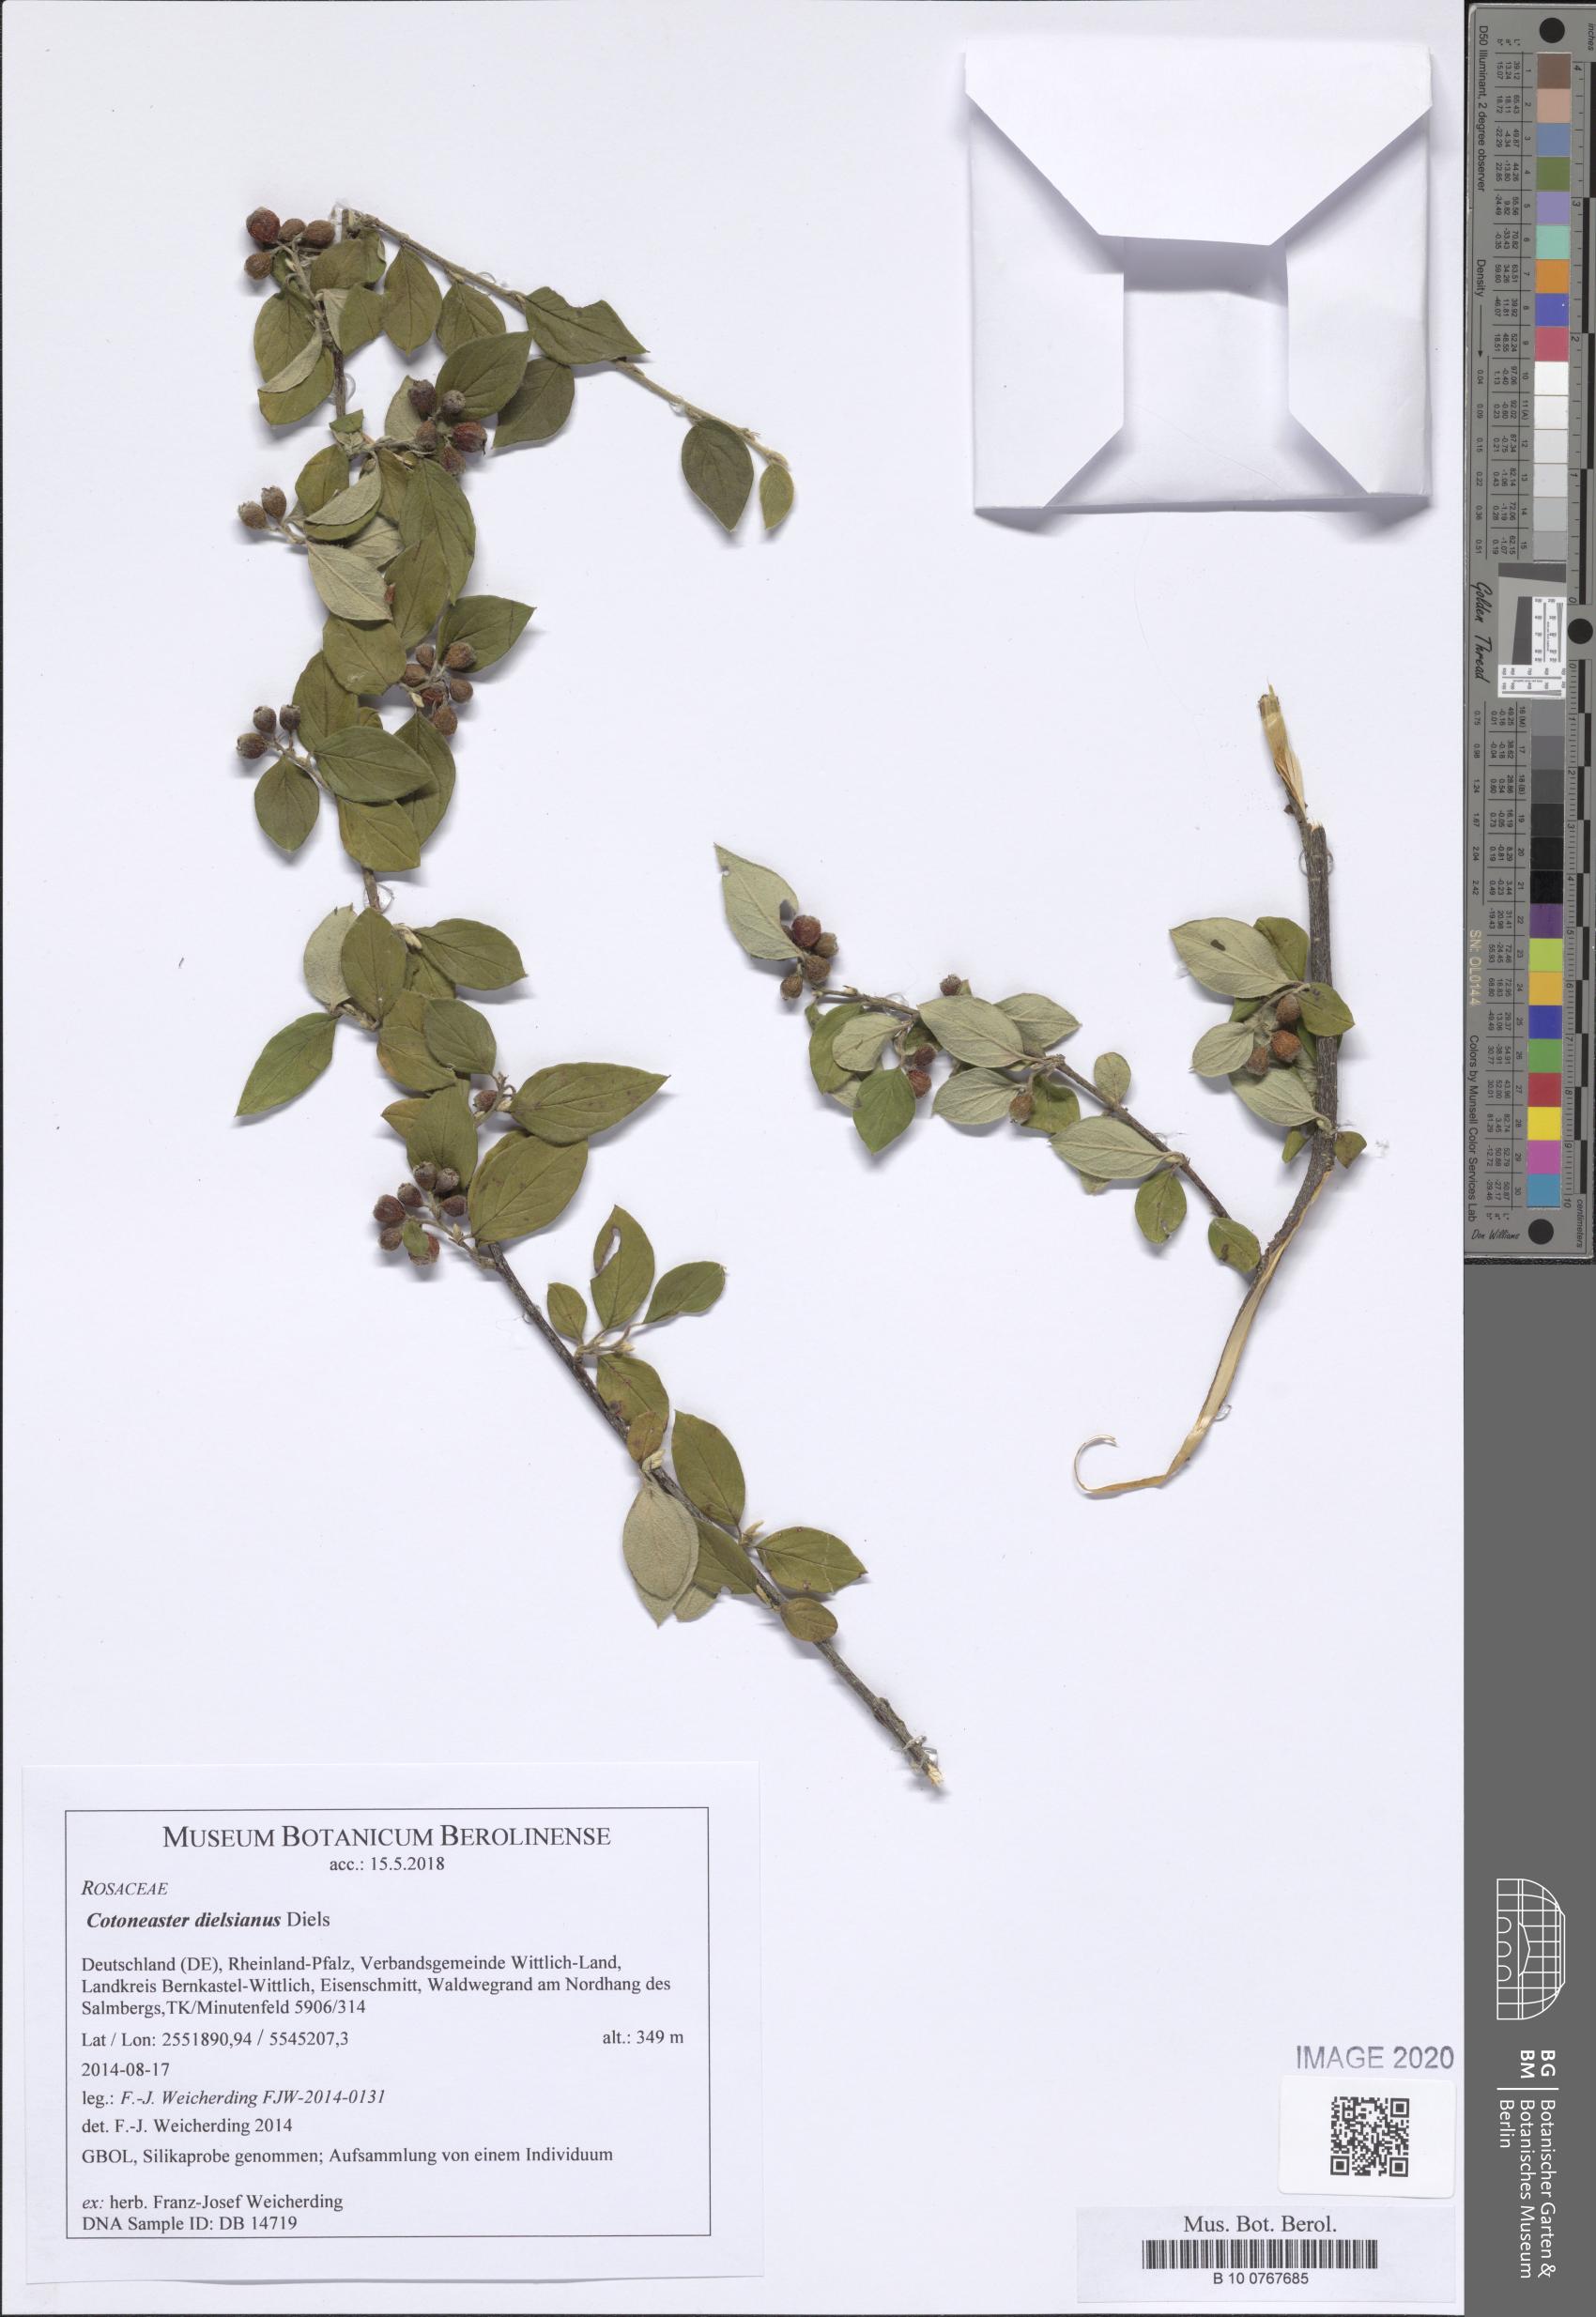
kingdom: Plantae
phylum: Tracheophyta
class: Magnoliopsida
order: Rosales
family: Rosaceae
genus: Cotoneaster
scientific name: Cotoneaster dielsianus
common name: Diels's cotoneaster
